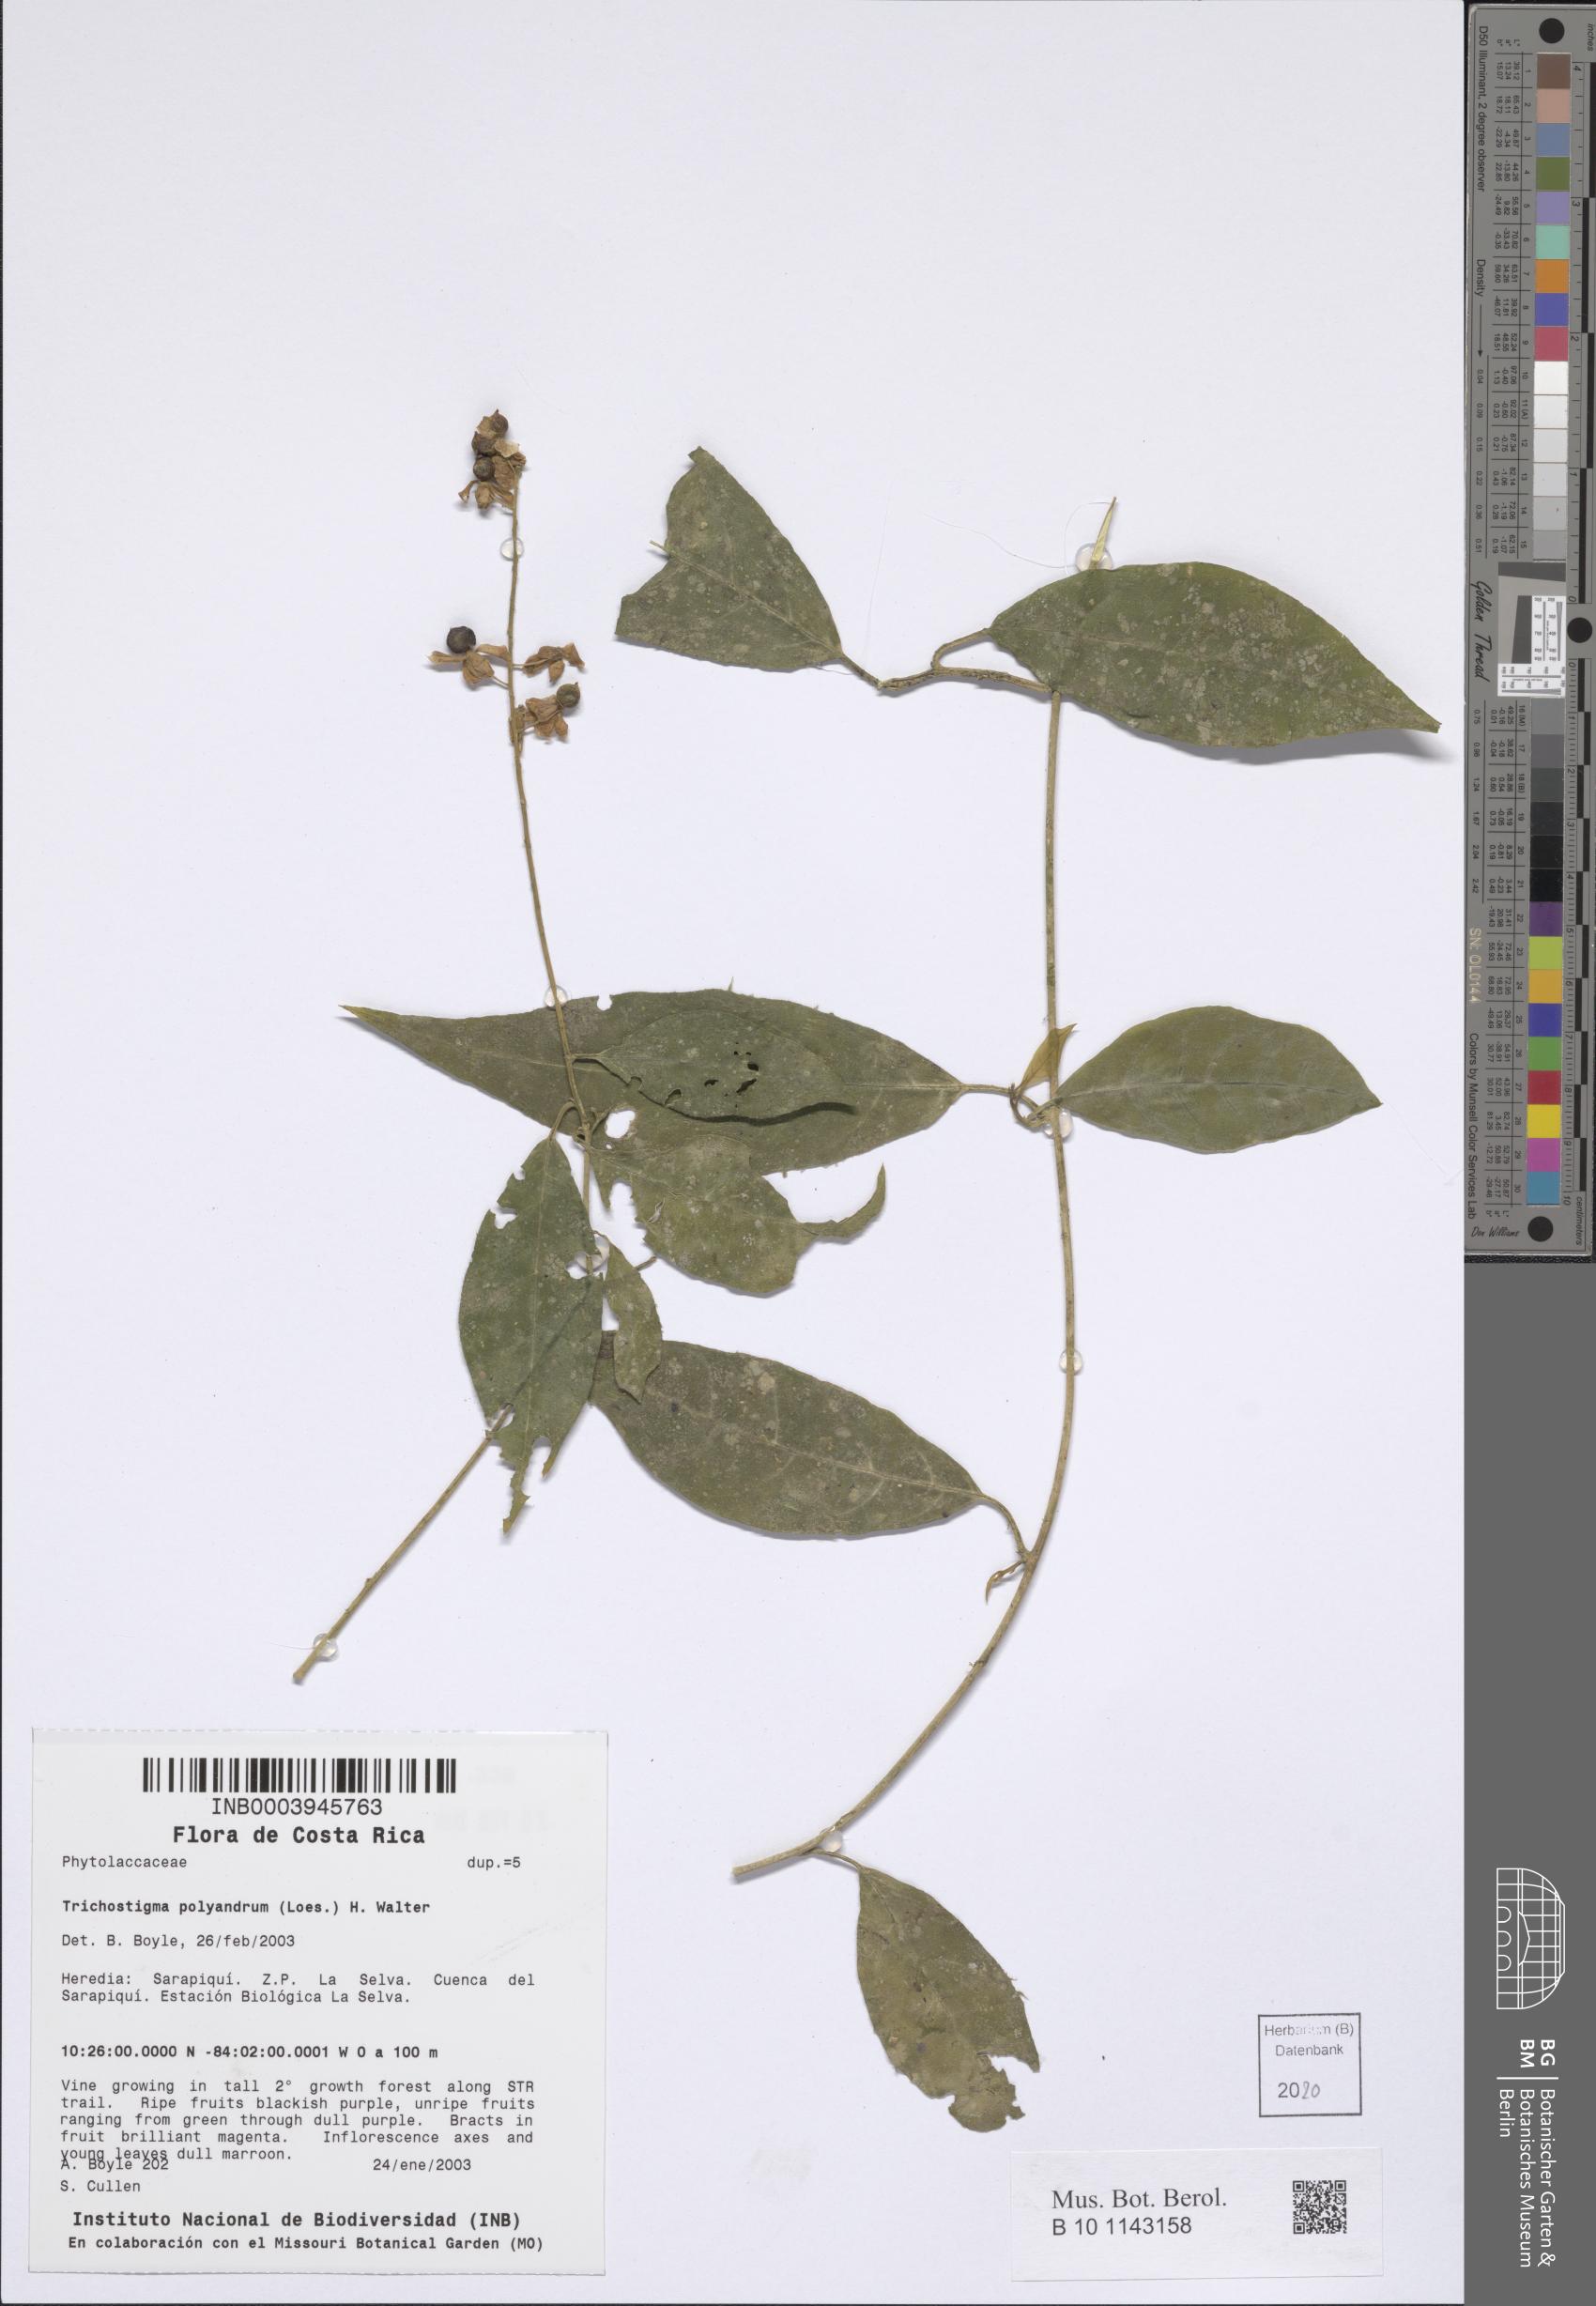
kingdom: Plantae
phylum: Tracheophyta
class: Magnoliopsida
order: Caryophyllales
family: Phytolaccaceae
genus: Trichostigma
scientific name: Trichostigma polyandrum
